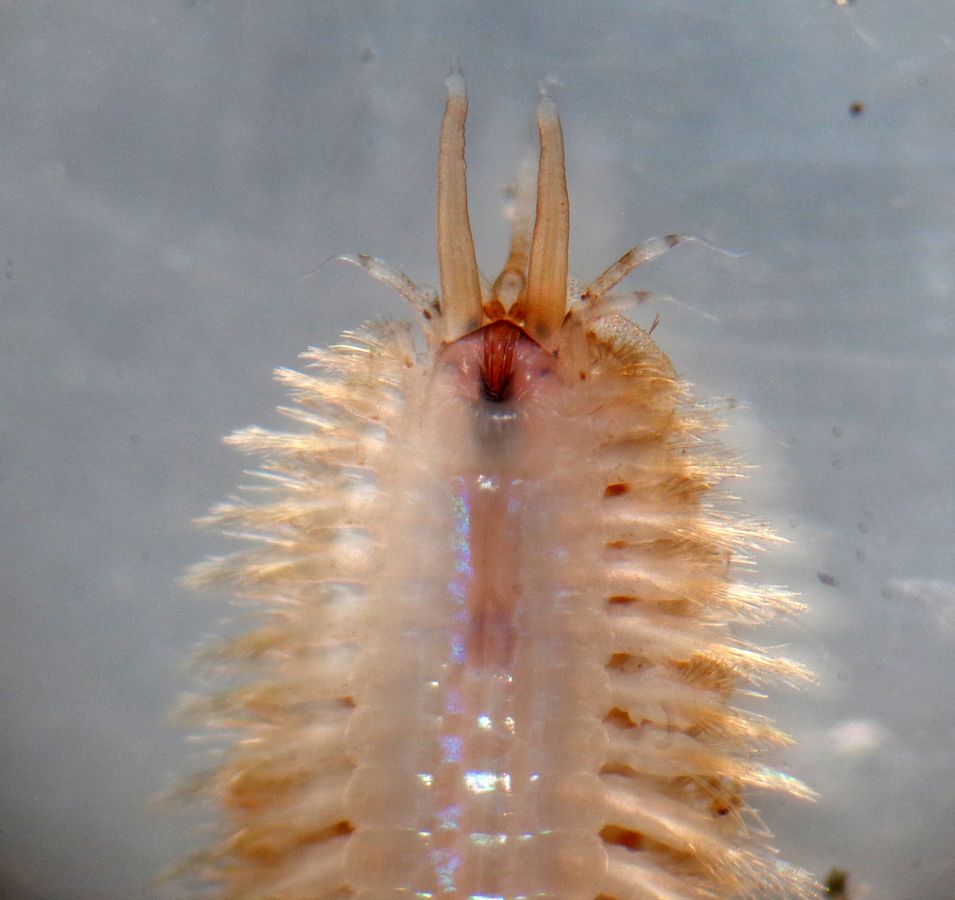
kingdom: Animalia
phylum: Annelida
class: Polychaeta
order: Phyllodocida
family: Polynoidae
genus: Harmothoe
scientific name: Harmothoe imbricata
